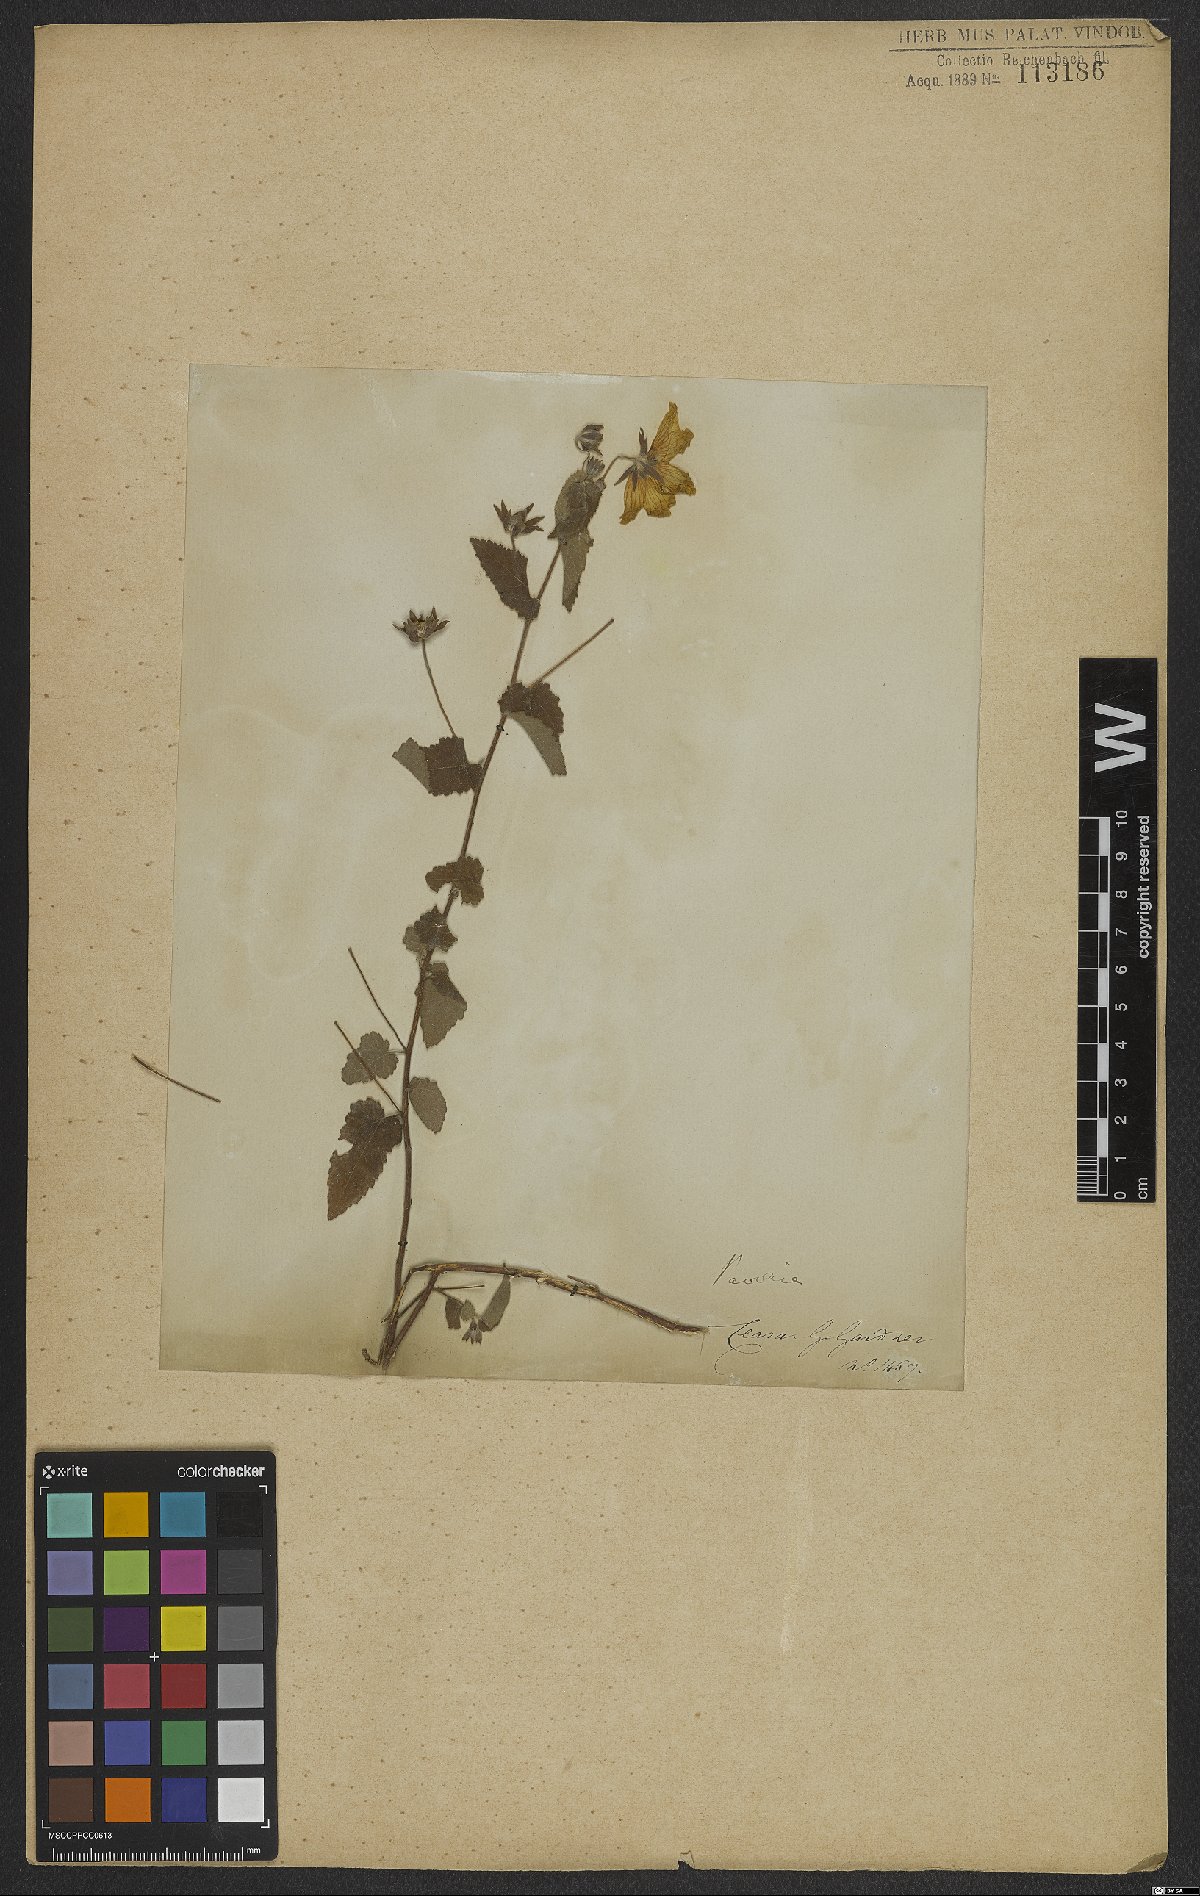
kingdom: Plantae
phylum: Tracheophyta
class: Magnoliopsida
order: Malvales
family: Malvaceae
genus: Pavonia
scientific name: Pavonia
